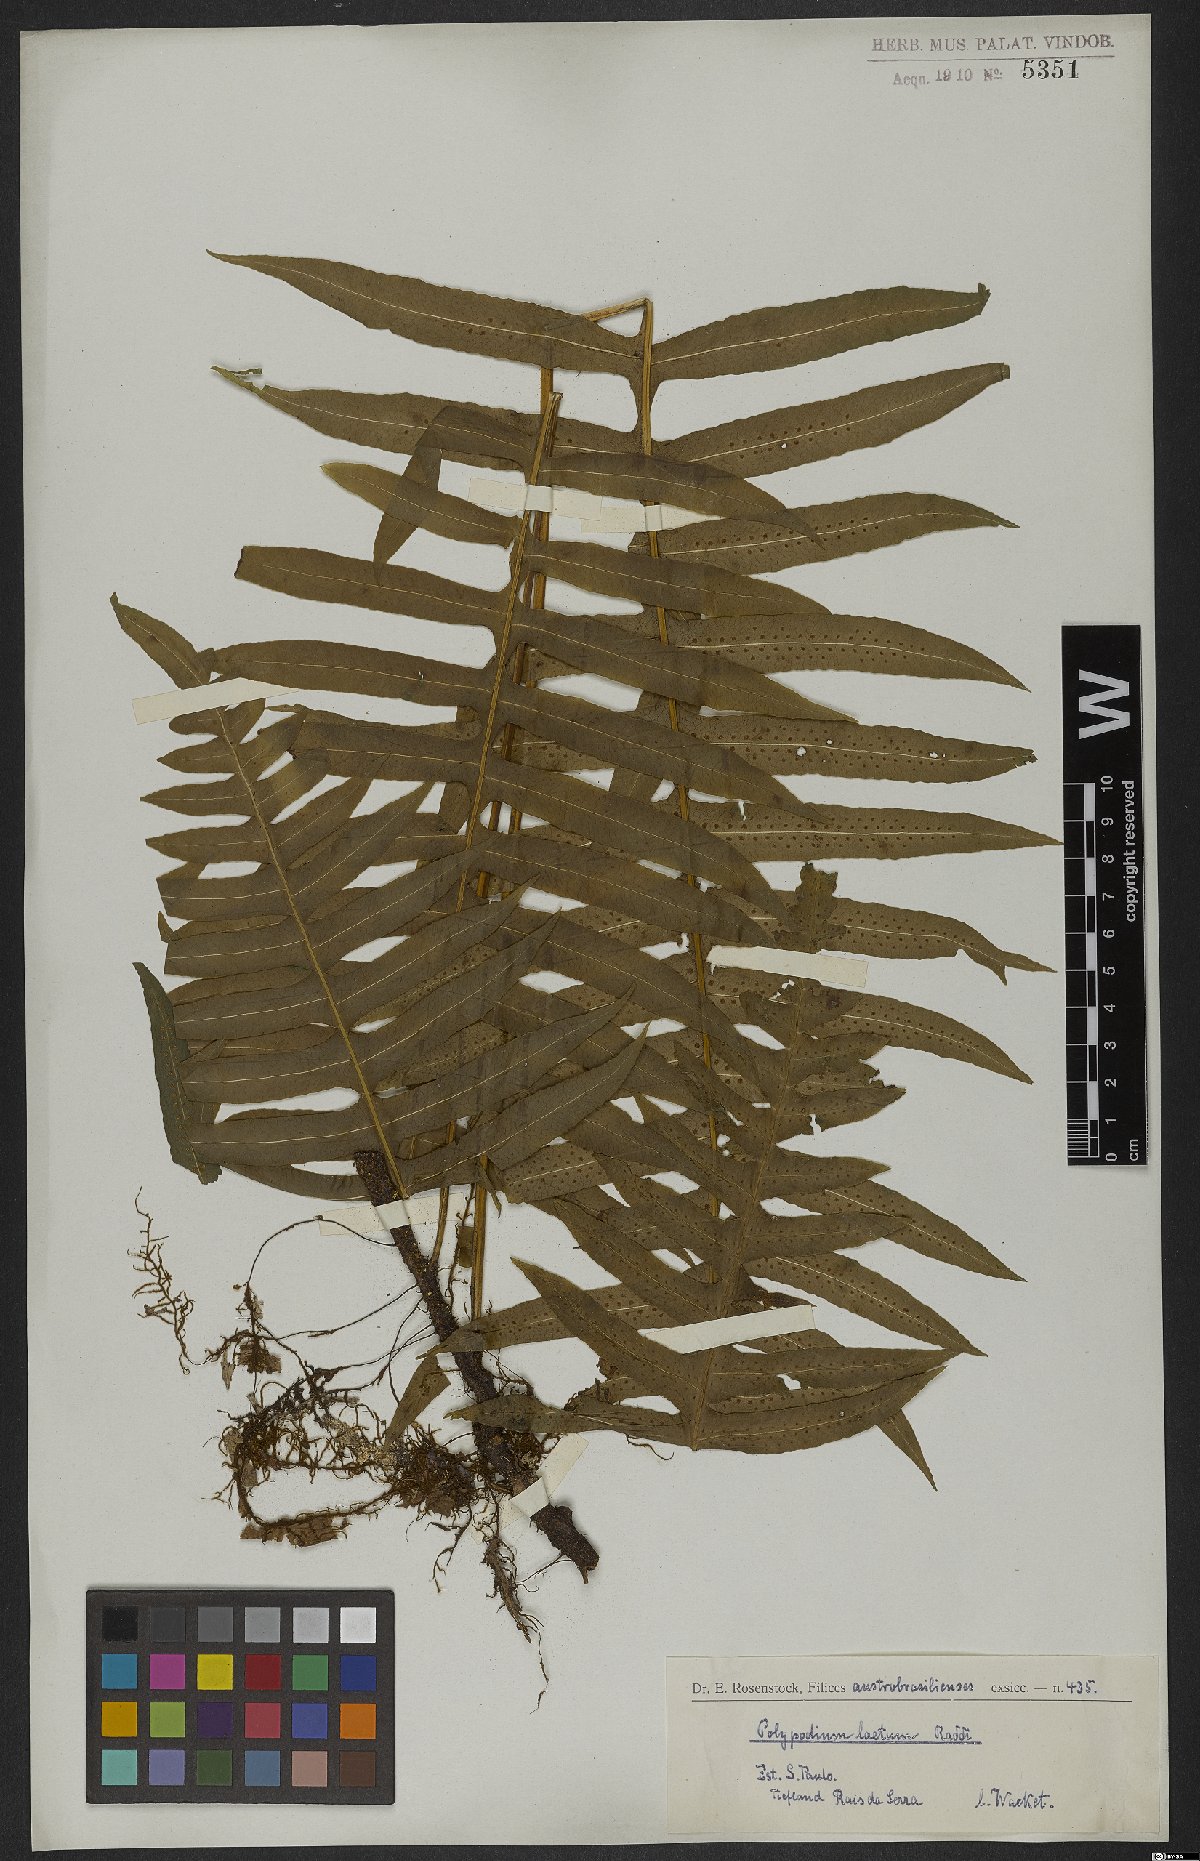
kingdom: Plantae
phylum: Tracheophyta
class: Polypodiopsida
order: Polypodiales
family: Polypodiaceae
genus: Serpocaulon
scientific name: Serpocaulon laetum
